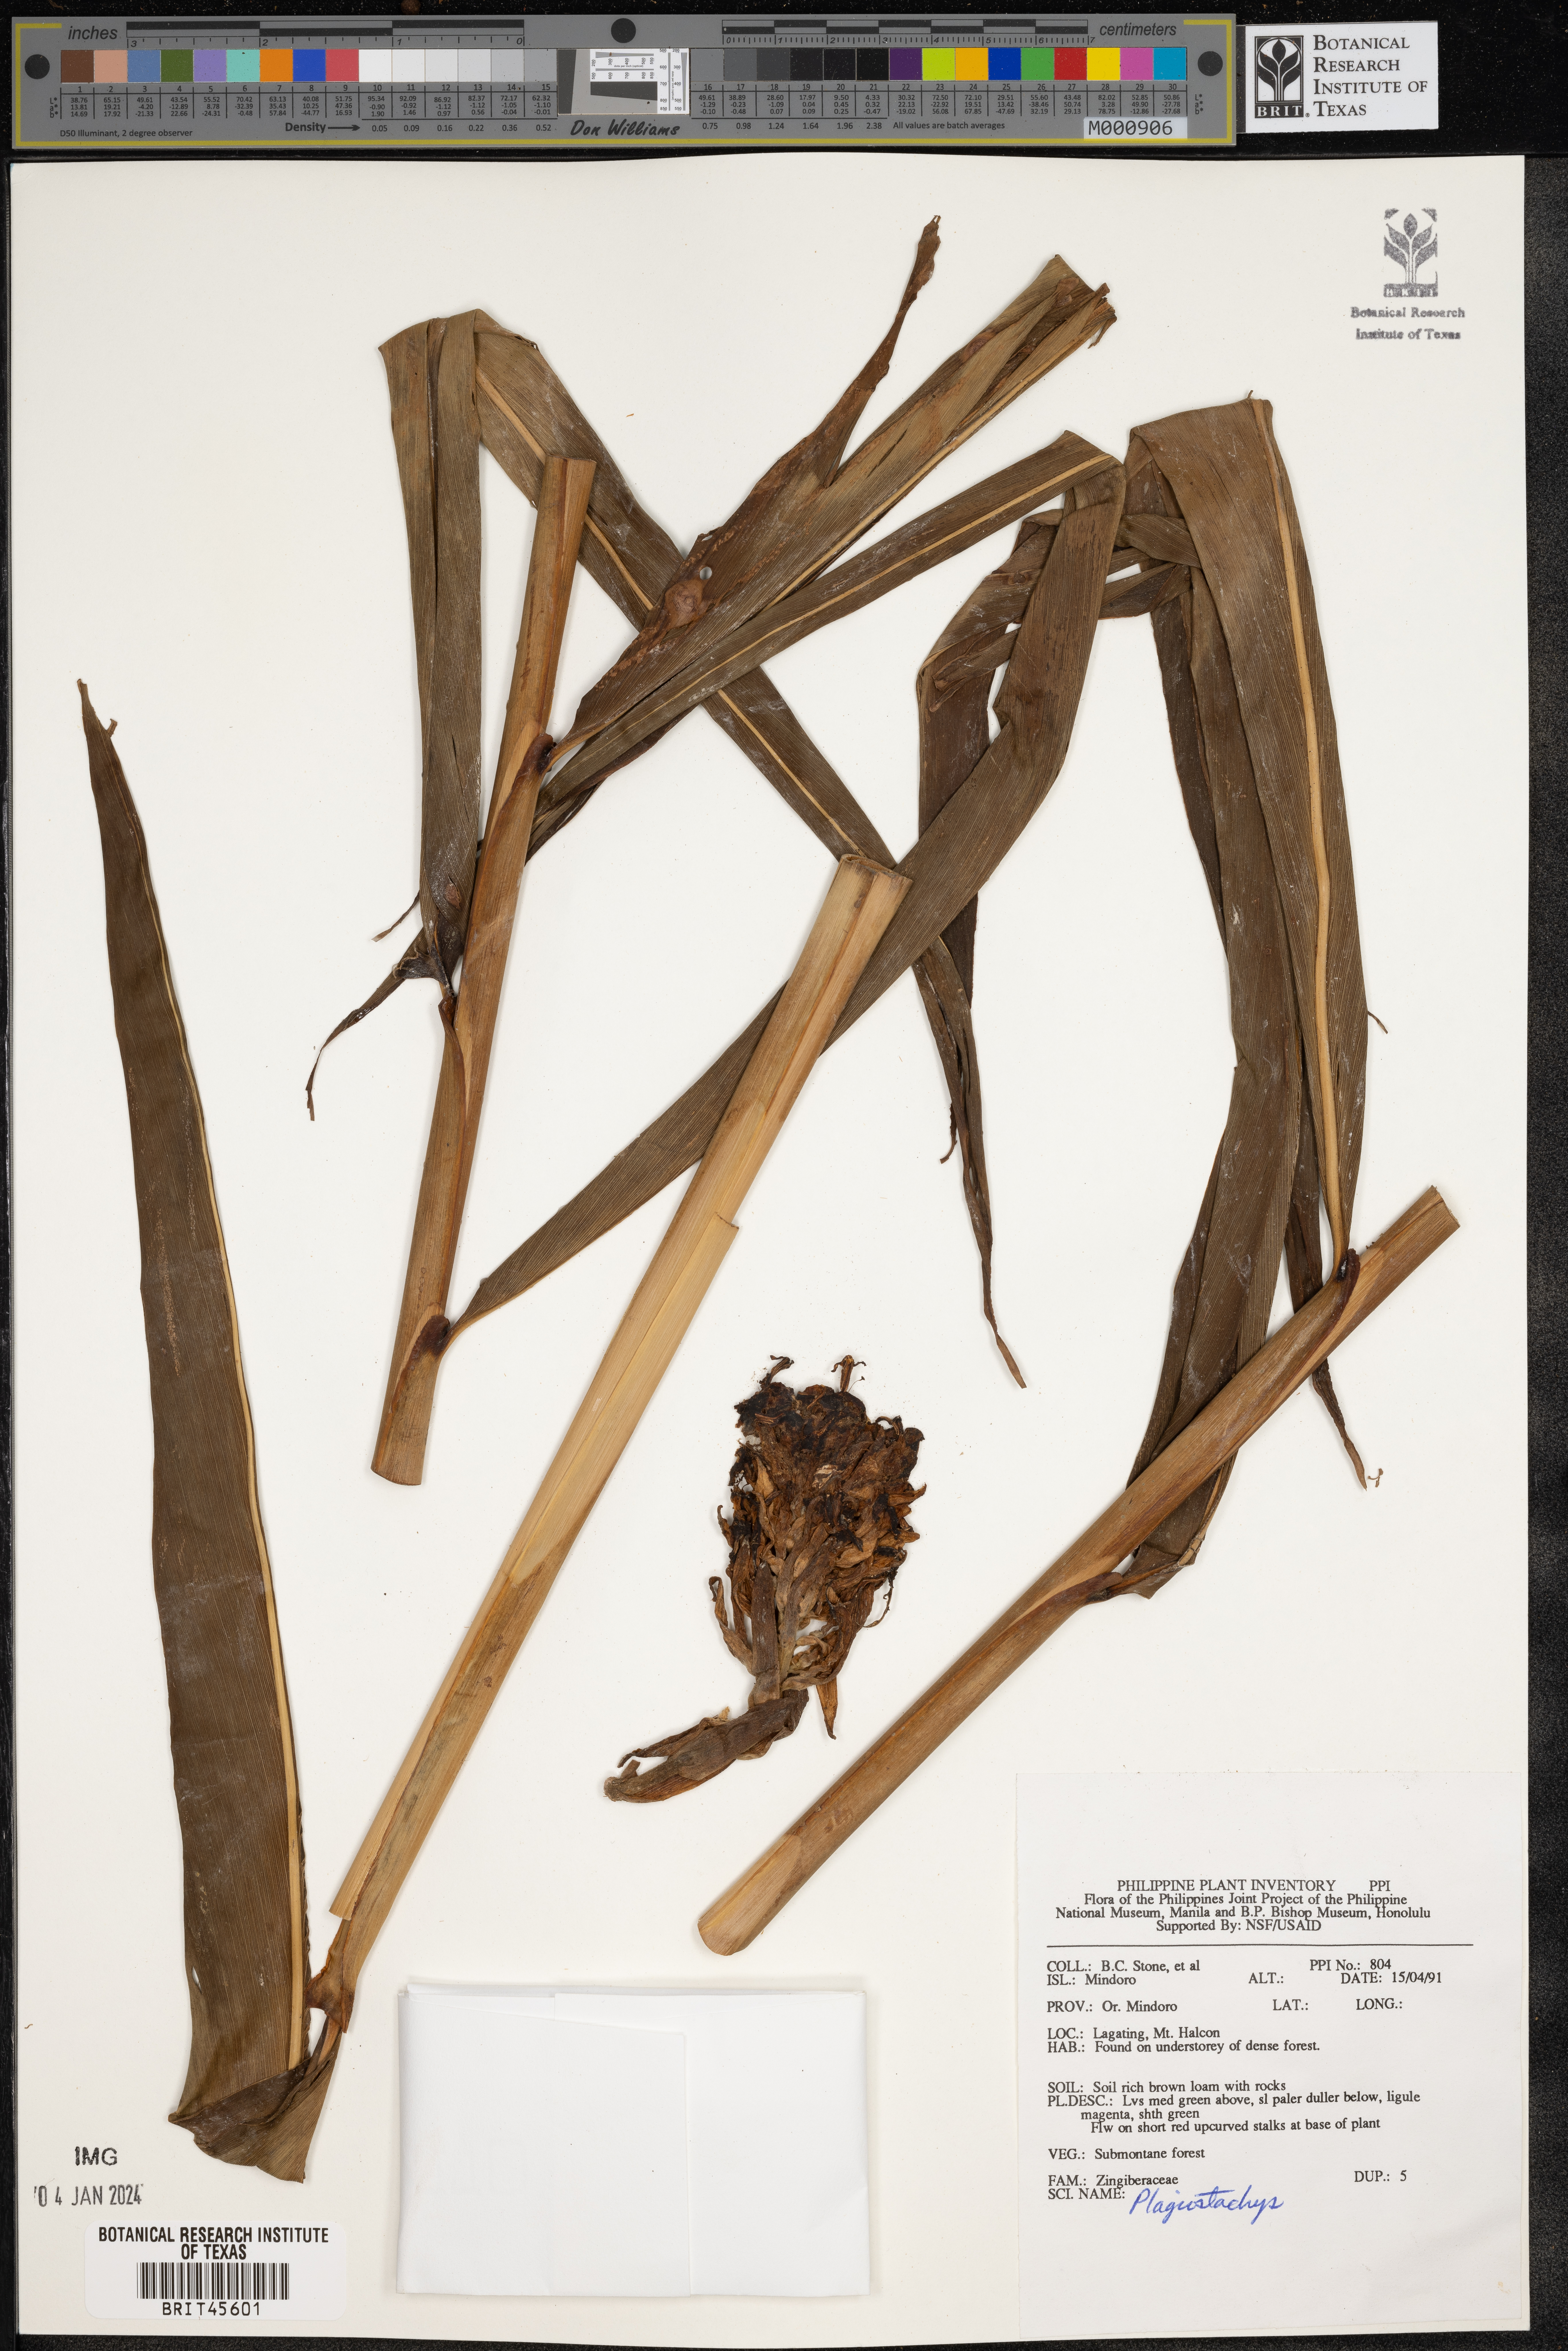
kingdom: Plantae
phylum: Tracheophyta
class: Liliopsida
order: Zingiberales
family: Zingiberaceae
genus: Plagiostachys
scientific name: Plagiostachys
